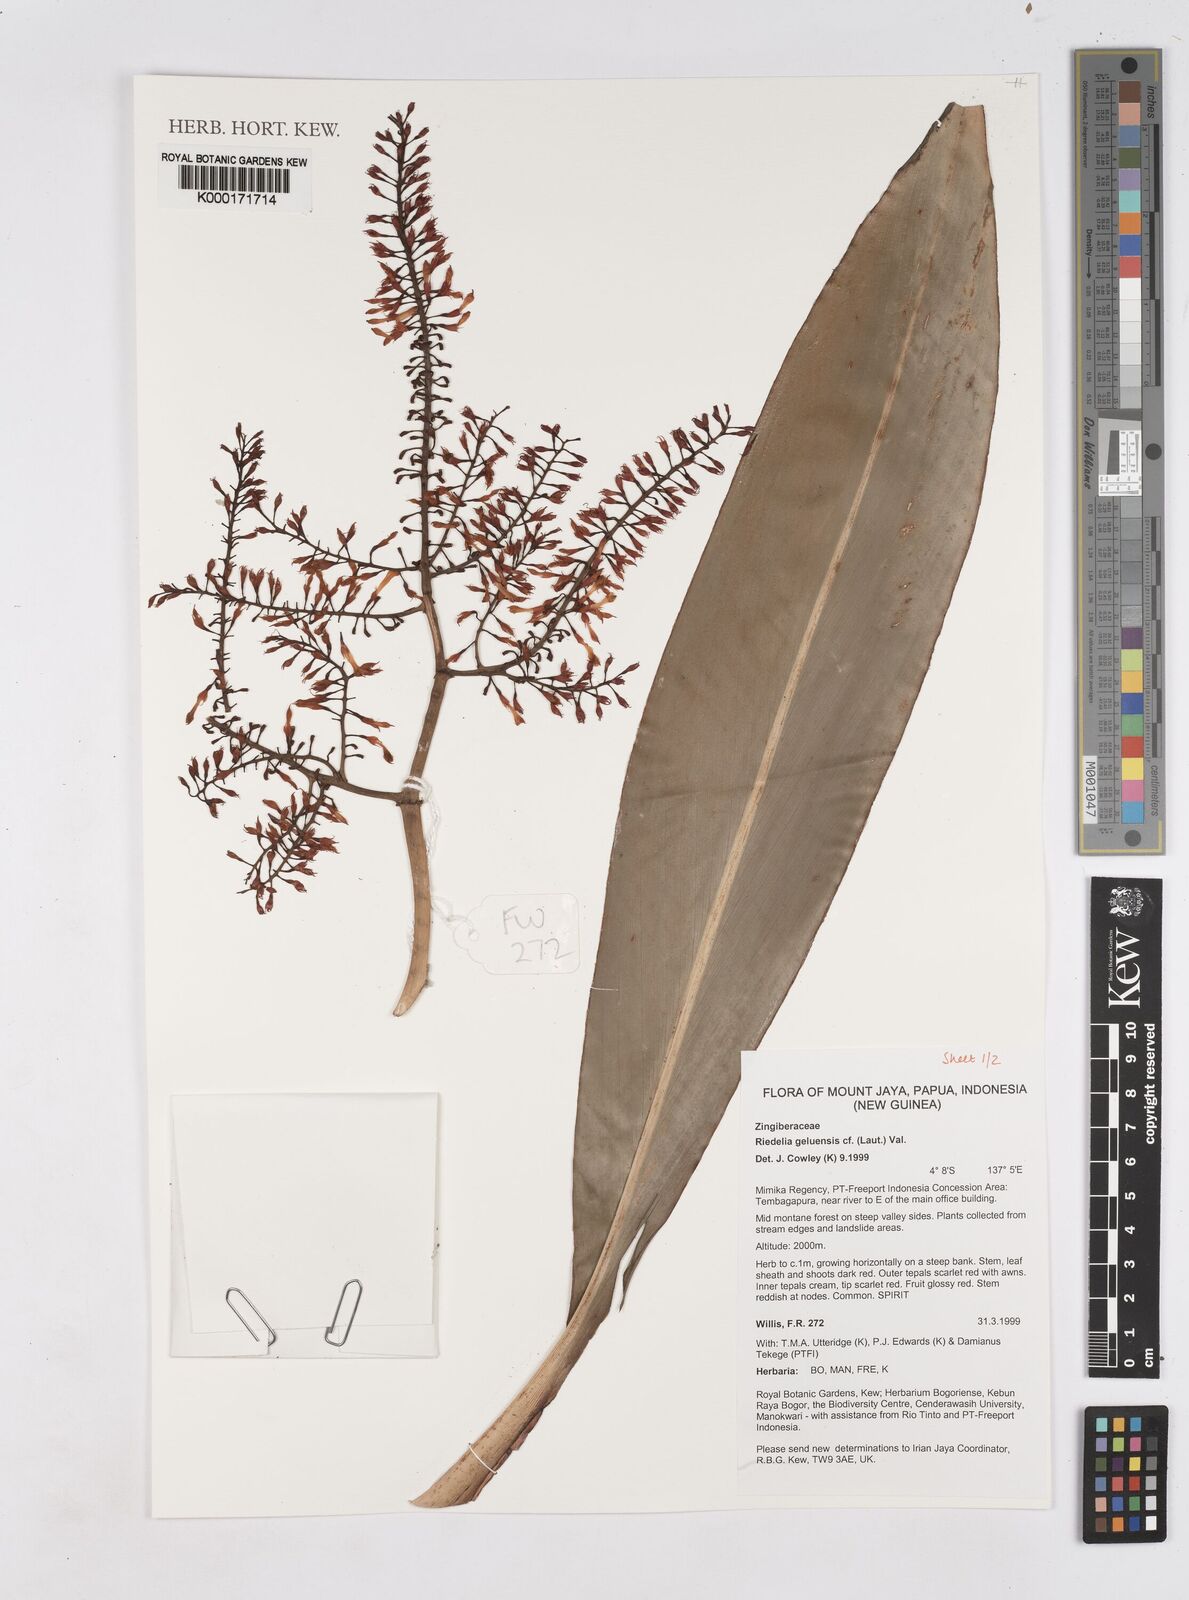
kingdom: Plantae
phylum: Tracheophyta
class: Liliopsida
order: Zingiberales
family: Zingiberaceae
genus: Riedelia
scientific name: Riedelia geluensis
